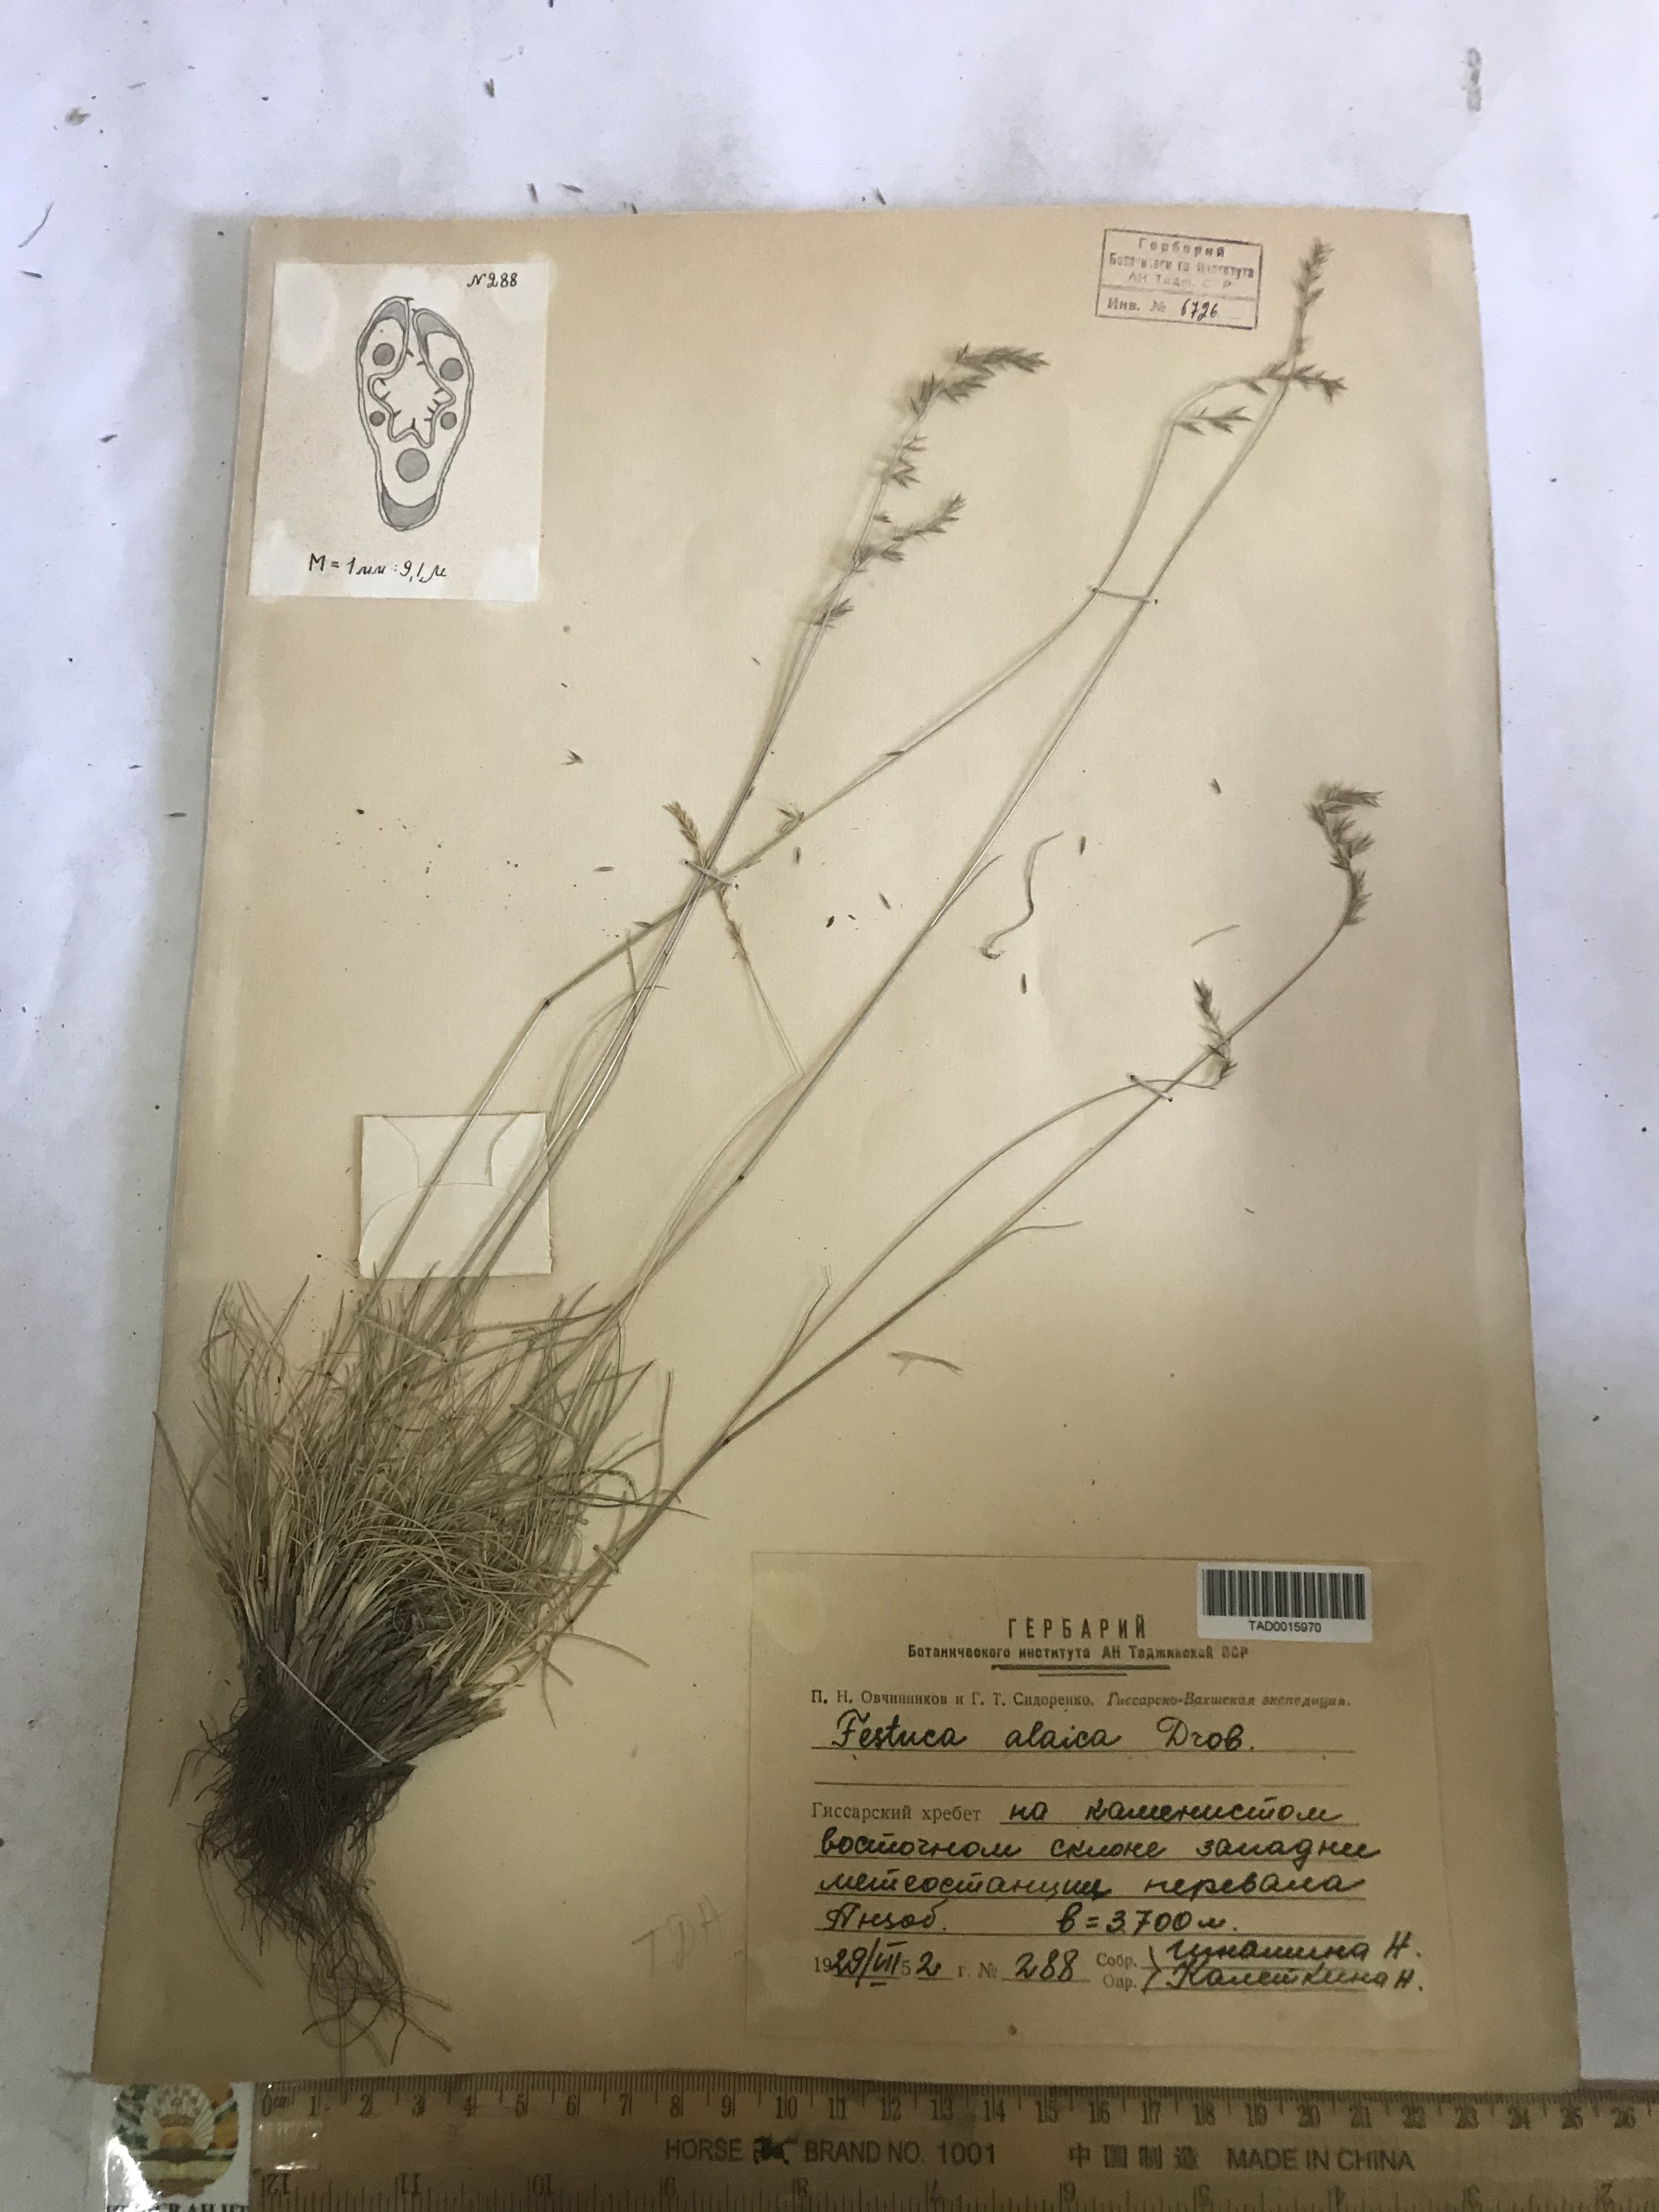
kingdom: Plantae
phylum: Tracheophyta
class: Liliopsida
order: Poales
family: Poaceae
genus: Festuca
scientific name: Festuca alaica
